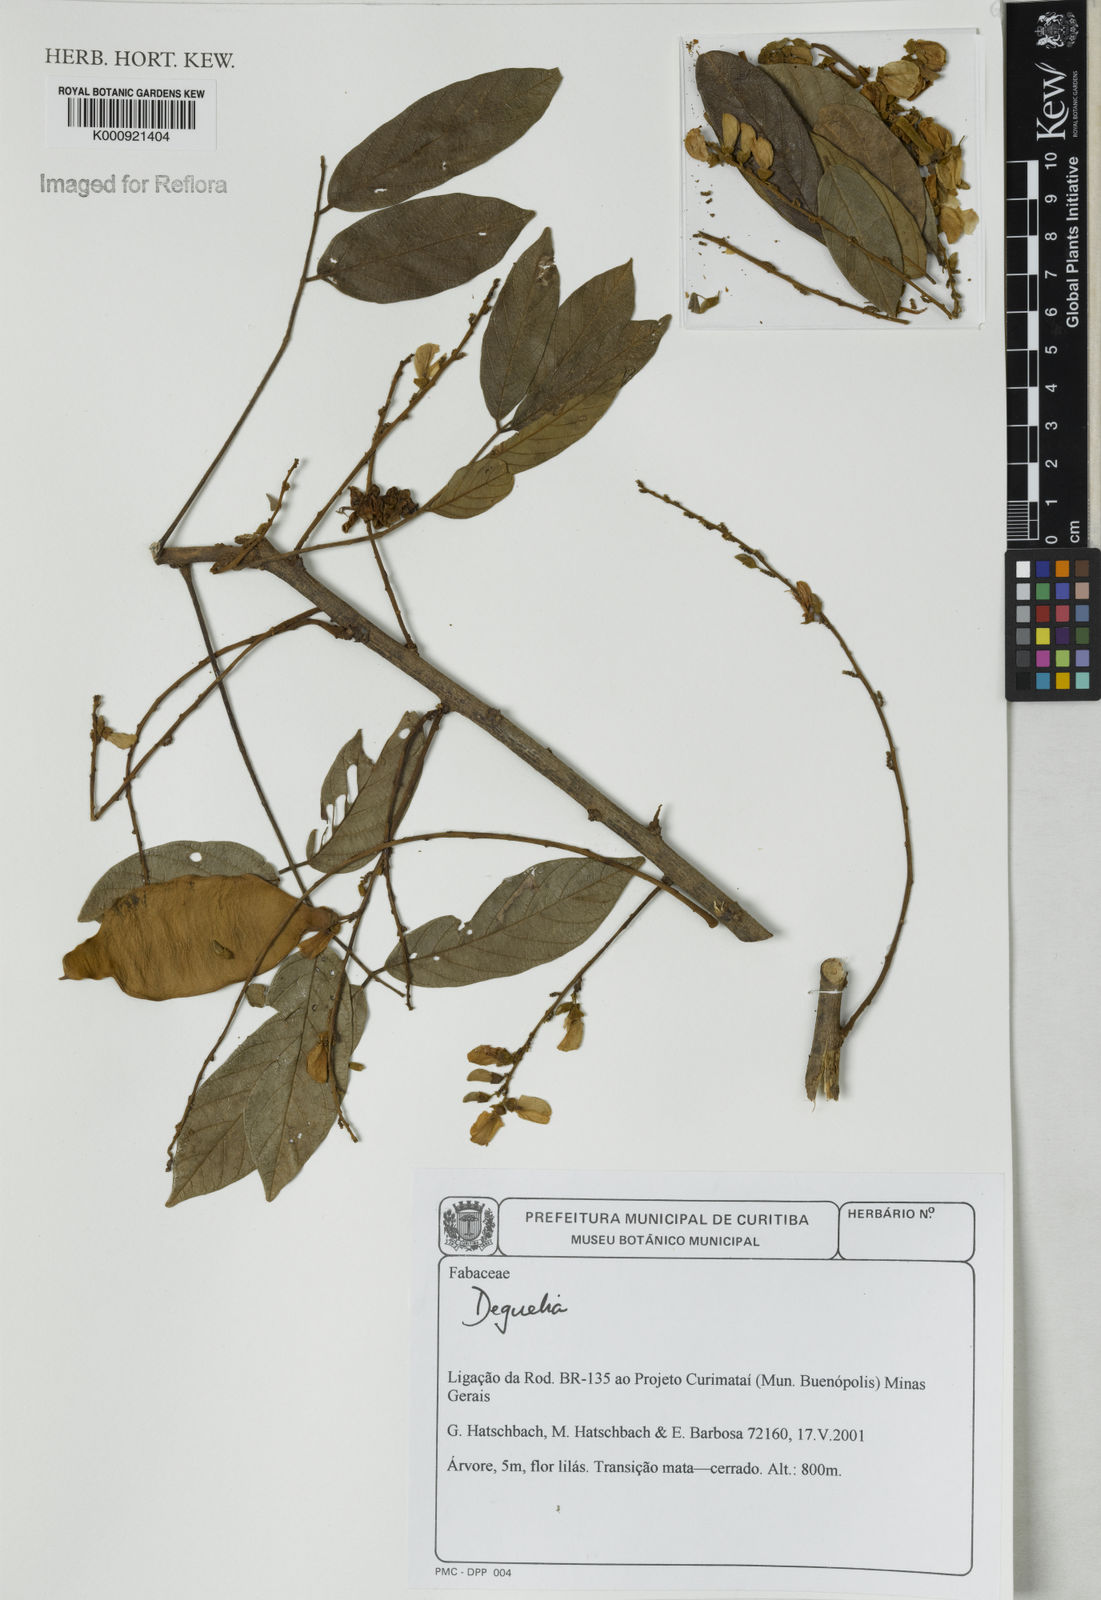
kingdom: Plantae
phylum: Tracheophyta
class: Magnoliopsida
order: Fabales
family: Fabaceae
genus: Deguelia
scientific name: Deguelia
